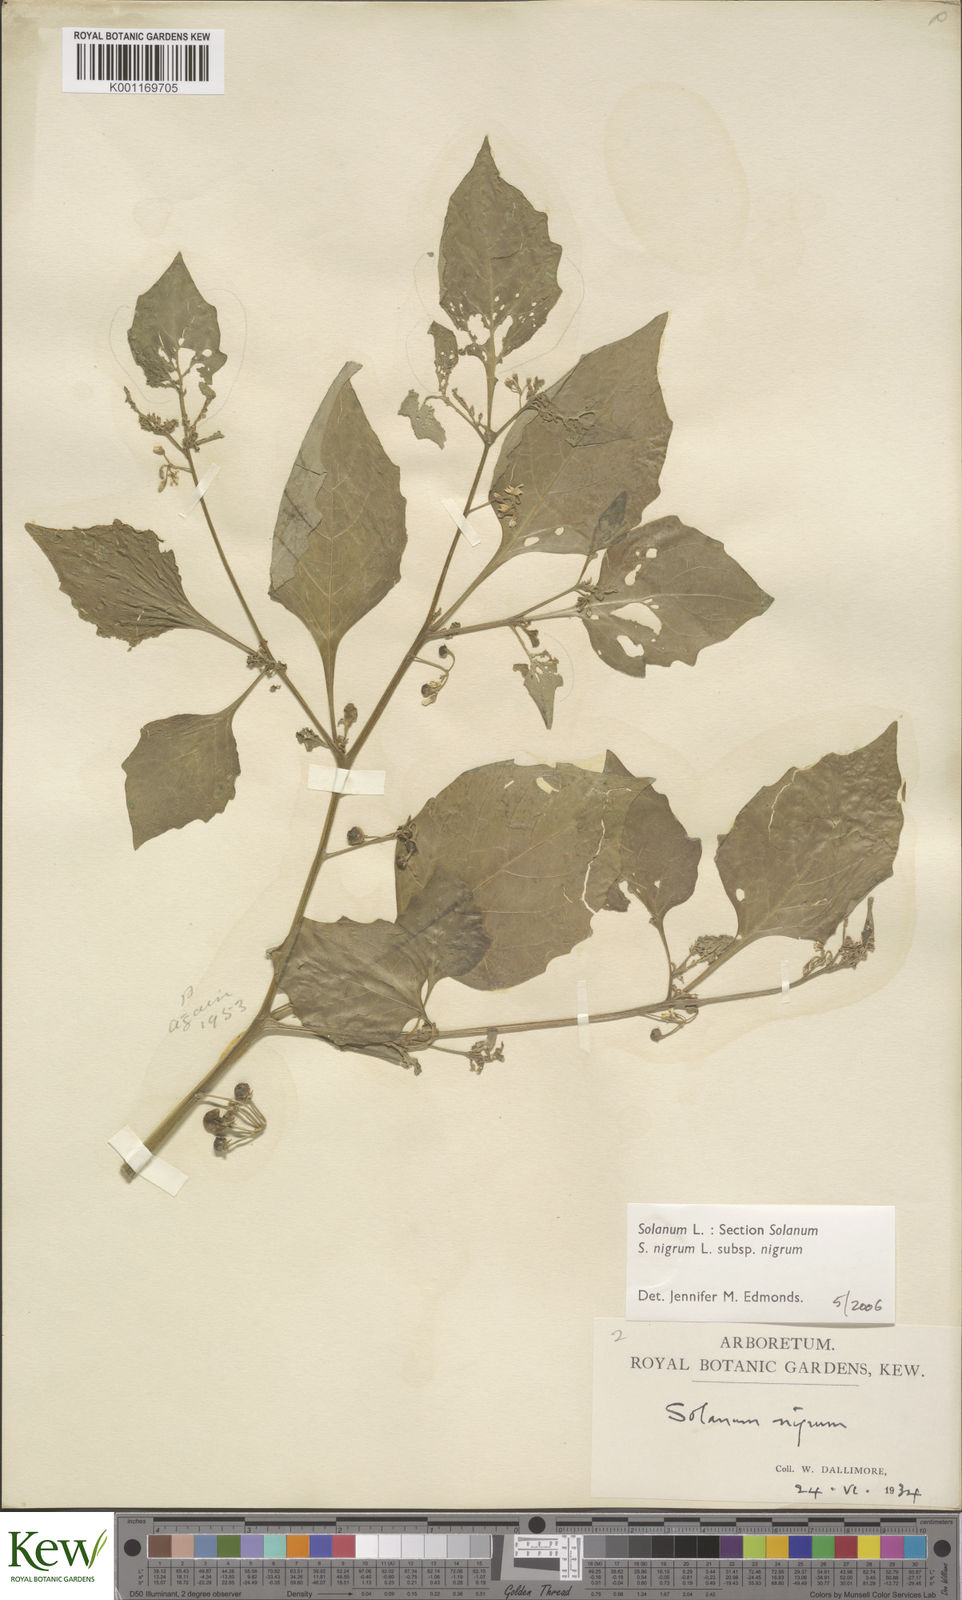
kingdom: Plantae
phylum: Tracheophyta
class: Magnoliopsida
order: Solanales
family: Solanaceae
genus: Solanum
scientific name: Solanum nigrum
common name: Black nightshade
